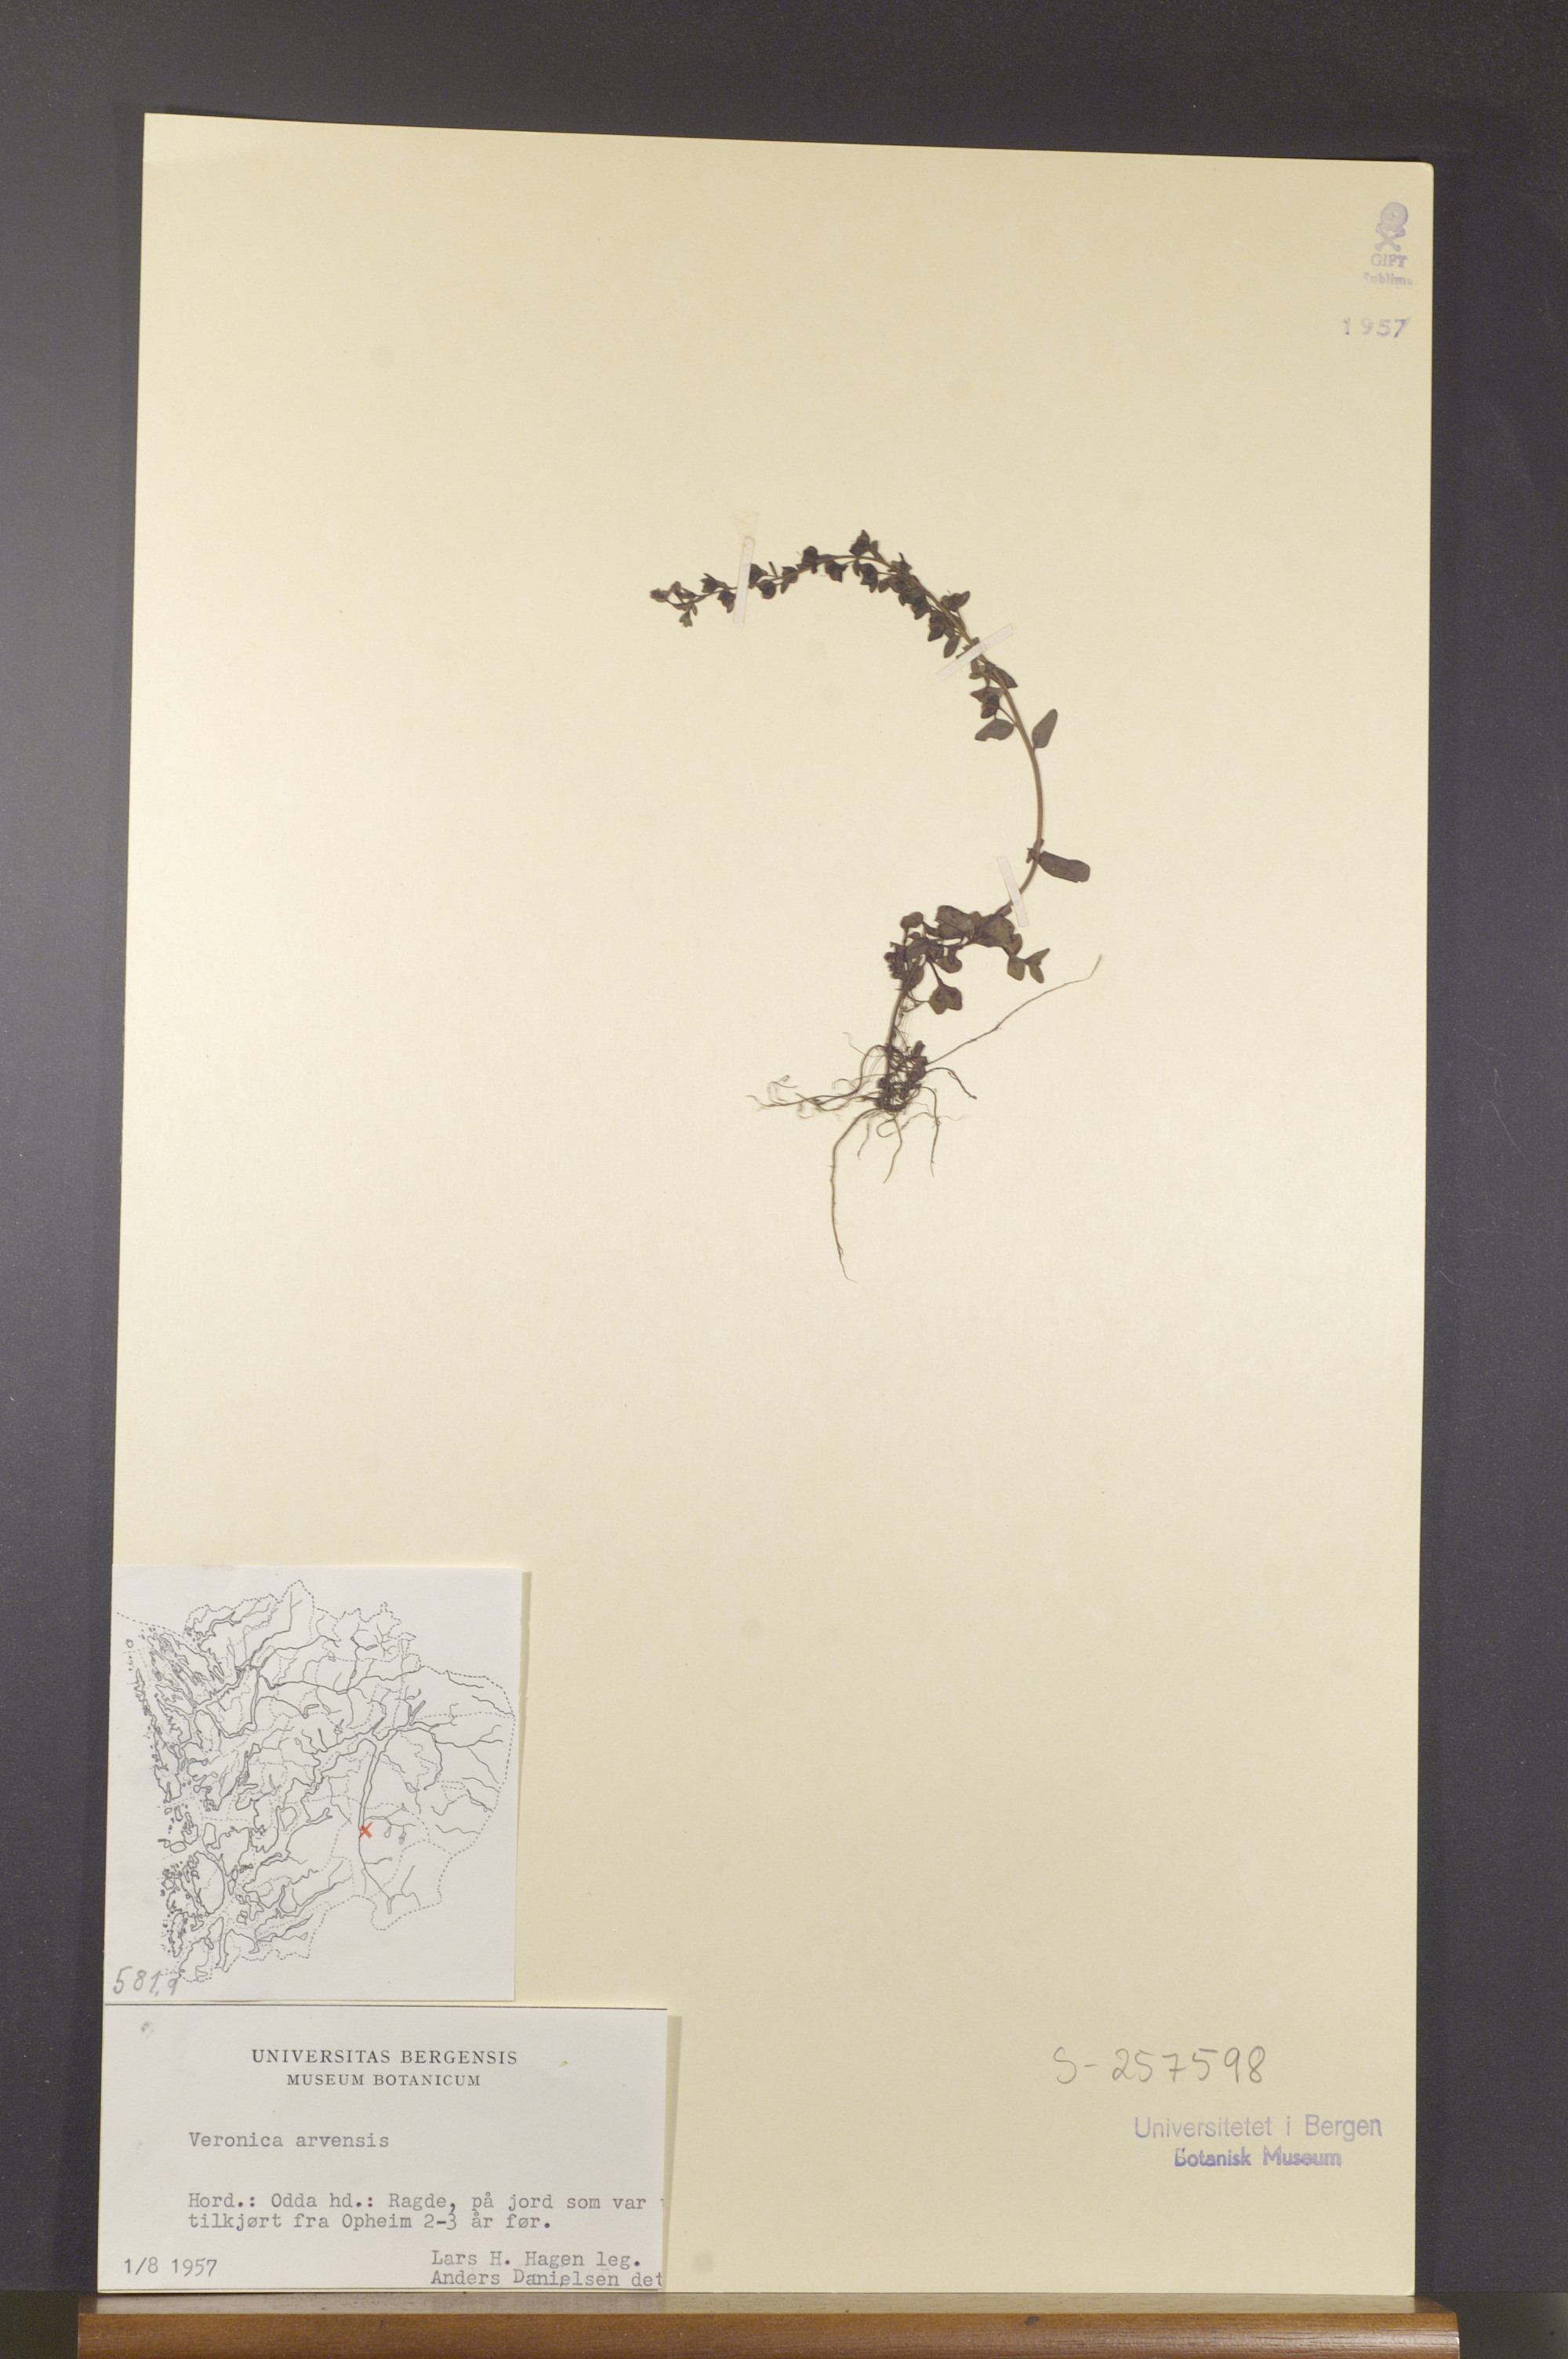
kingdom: Plantae
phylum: Tracheophyta
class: Magnoliopsida
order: Lamiales
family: Plantaginaceae
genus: Veronica
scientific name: Veronica arvensis
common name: Corn speedwell
